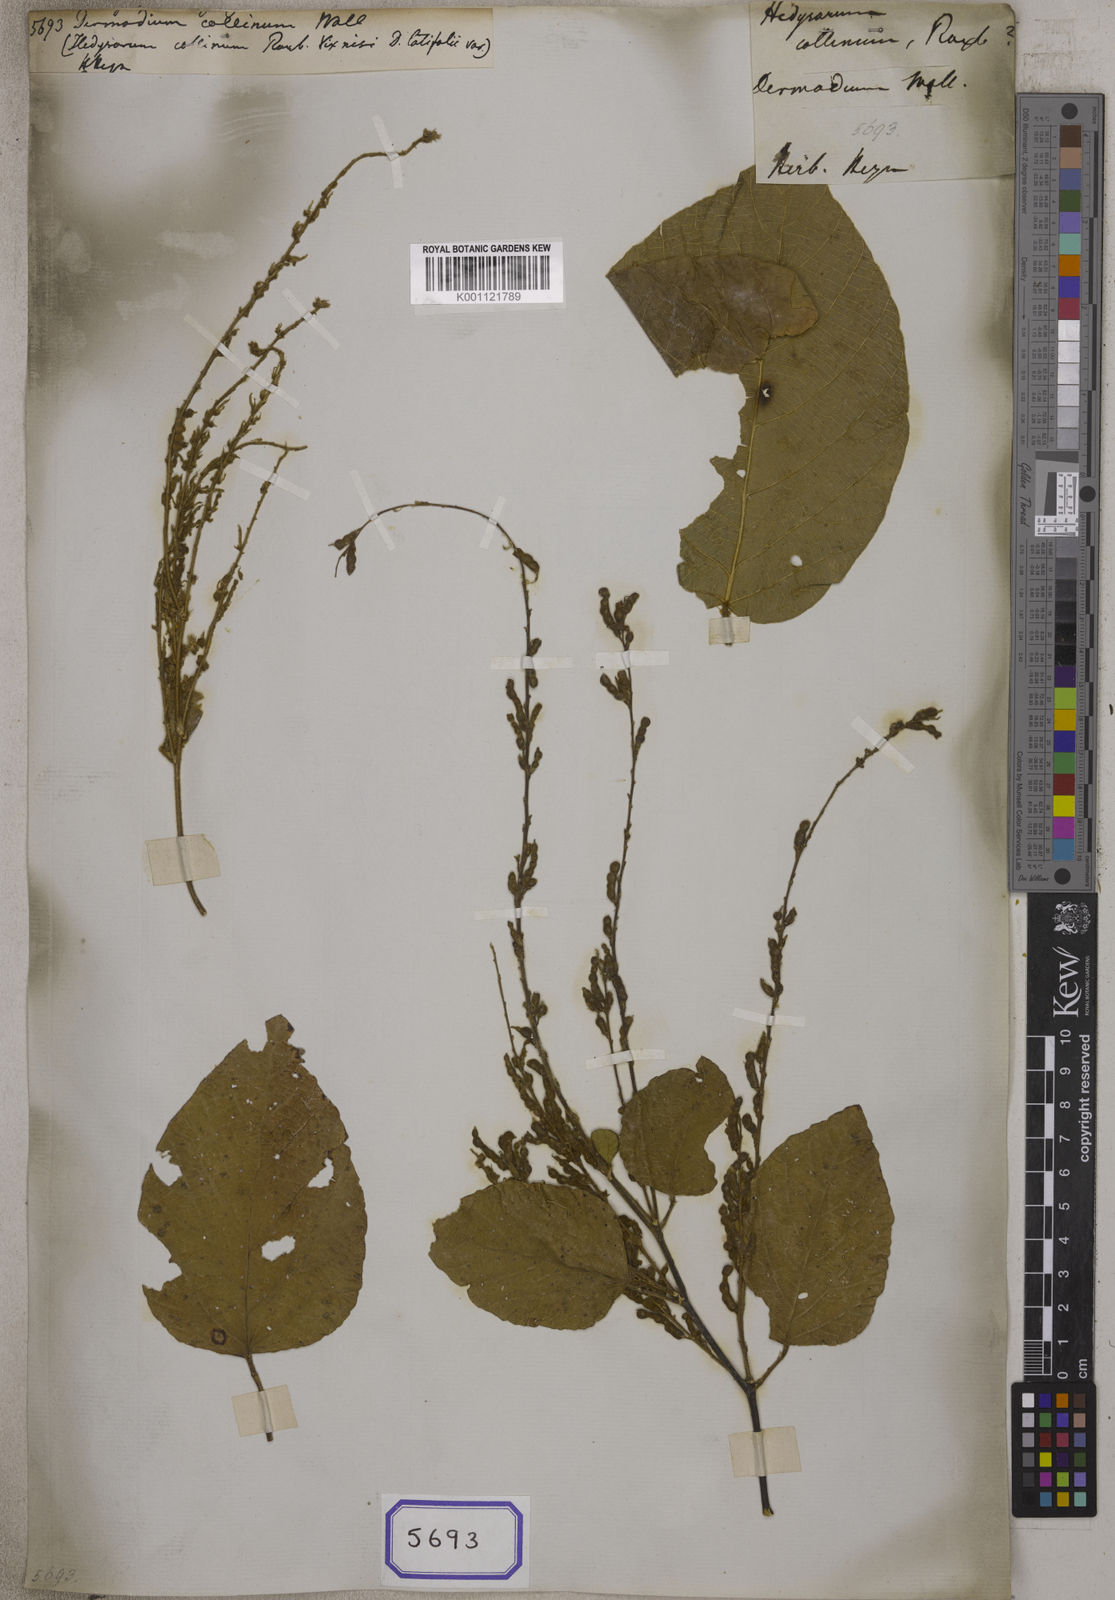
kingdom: Plantae
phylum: Tracheophyta
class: Magnoliopsida
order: Fabales
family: Fabaceae
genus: Desmodium
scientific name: Desmodium
